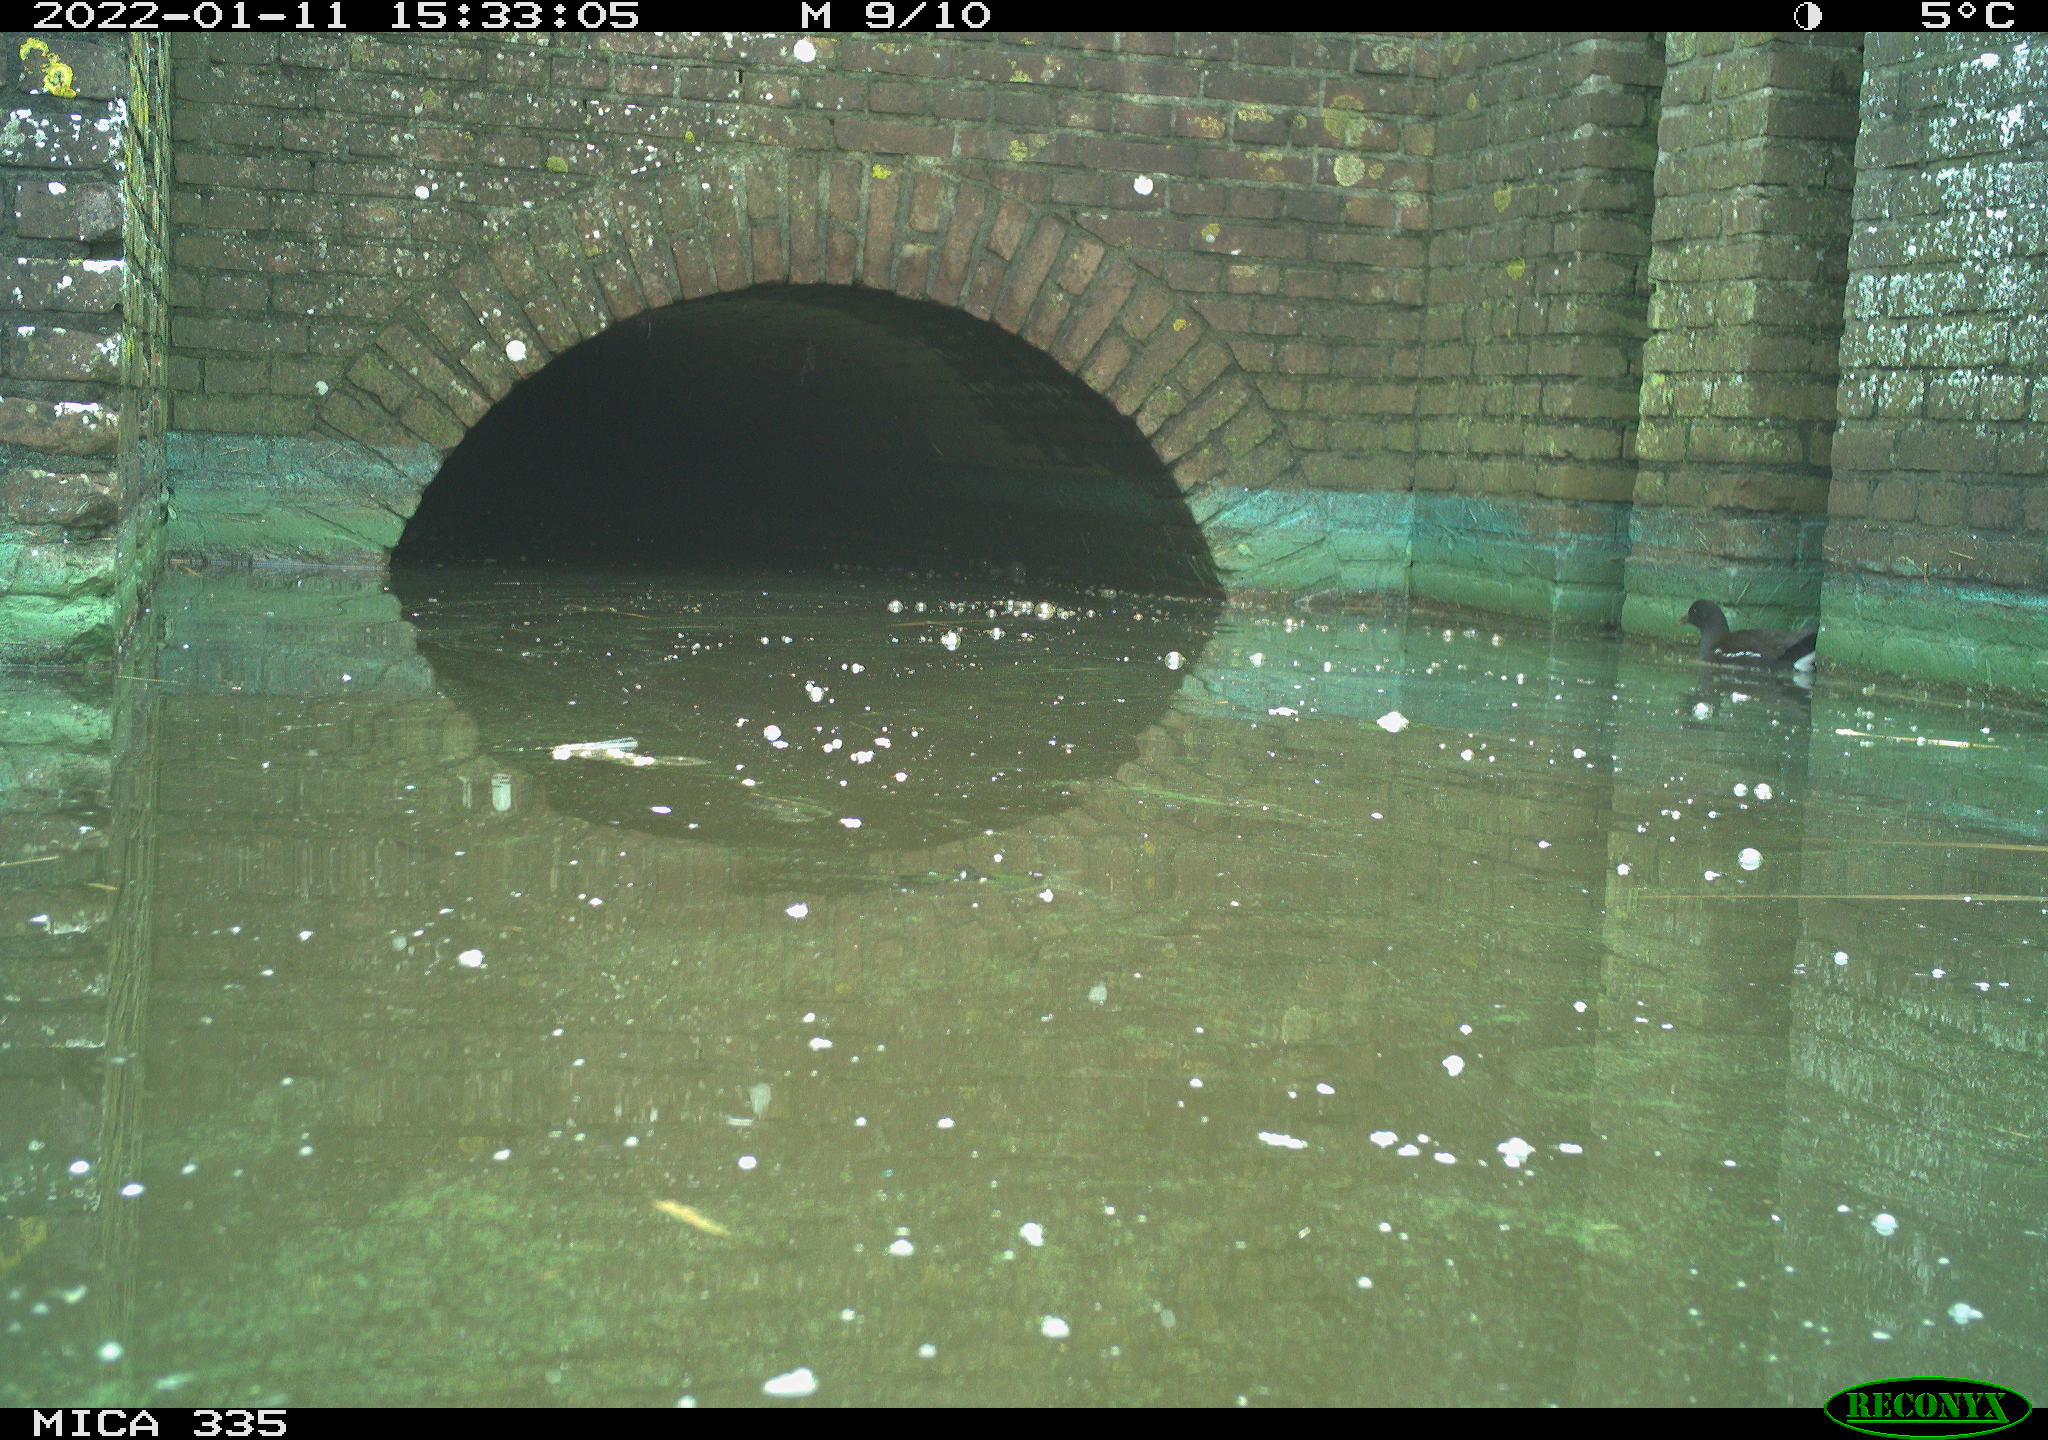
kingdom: Animalia
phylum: Chordata
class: Aves
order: Gruiformes
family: Rallidae
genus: Gallinula
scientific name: Gallinula chloropus
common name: Common moorhen
